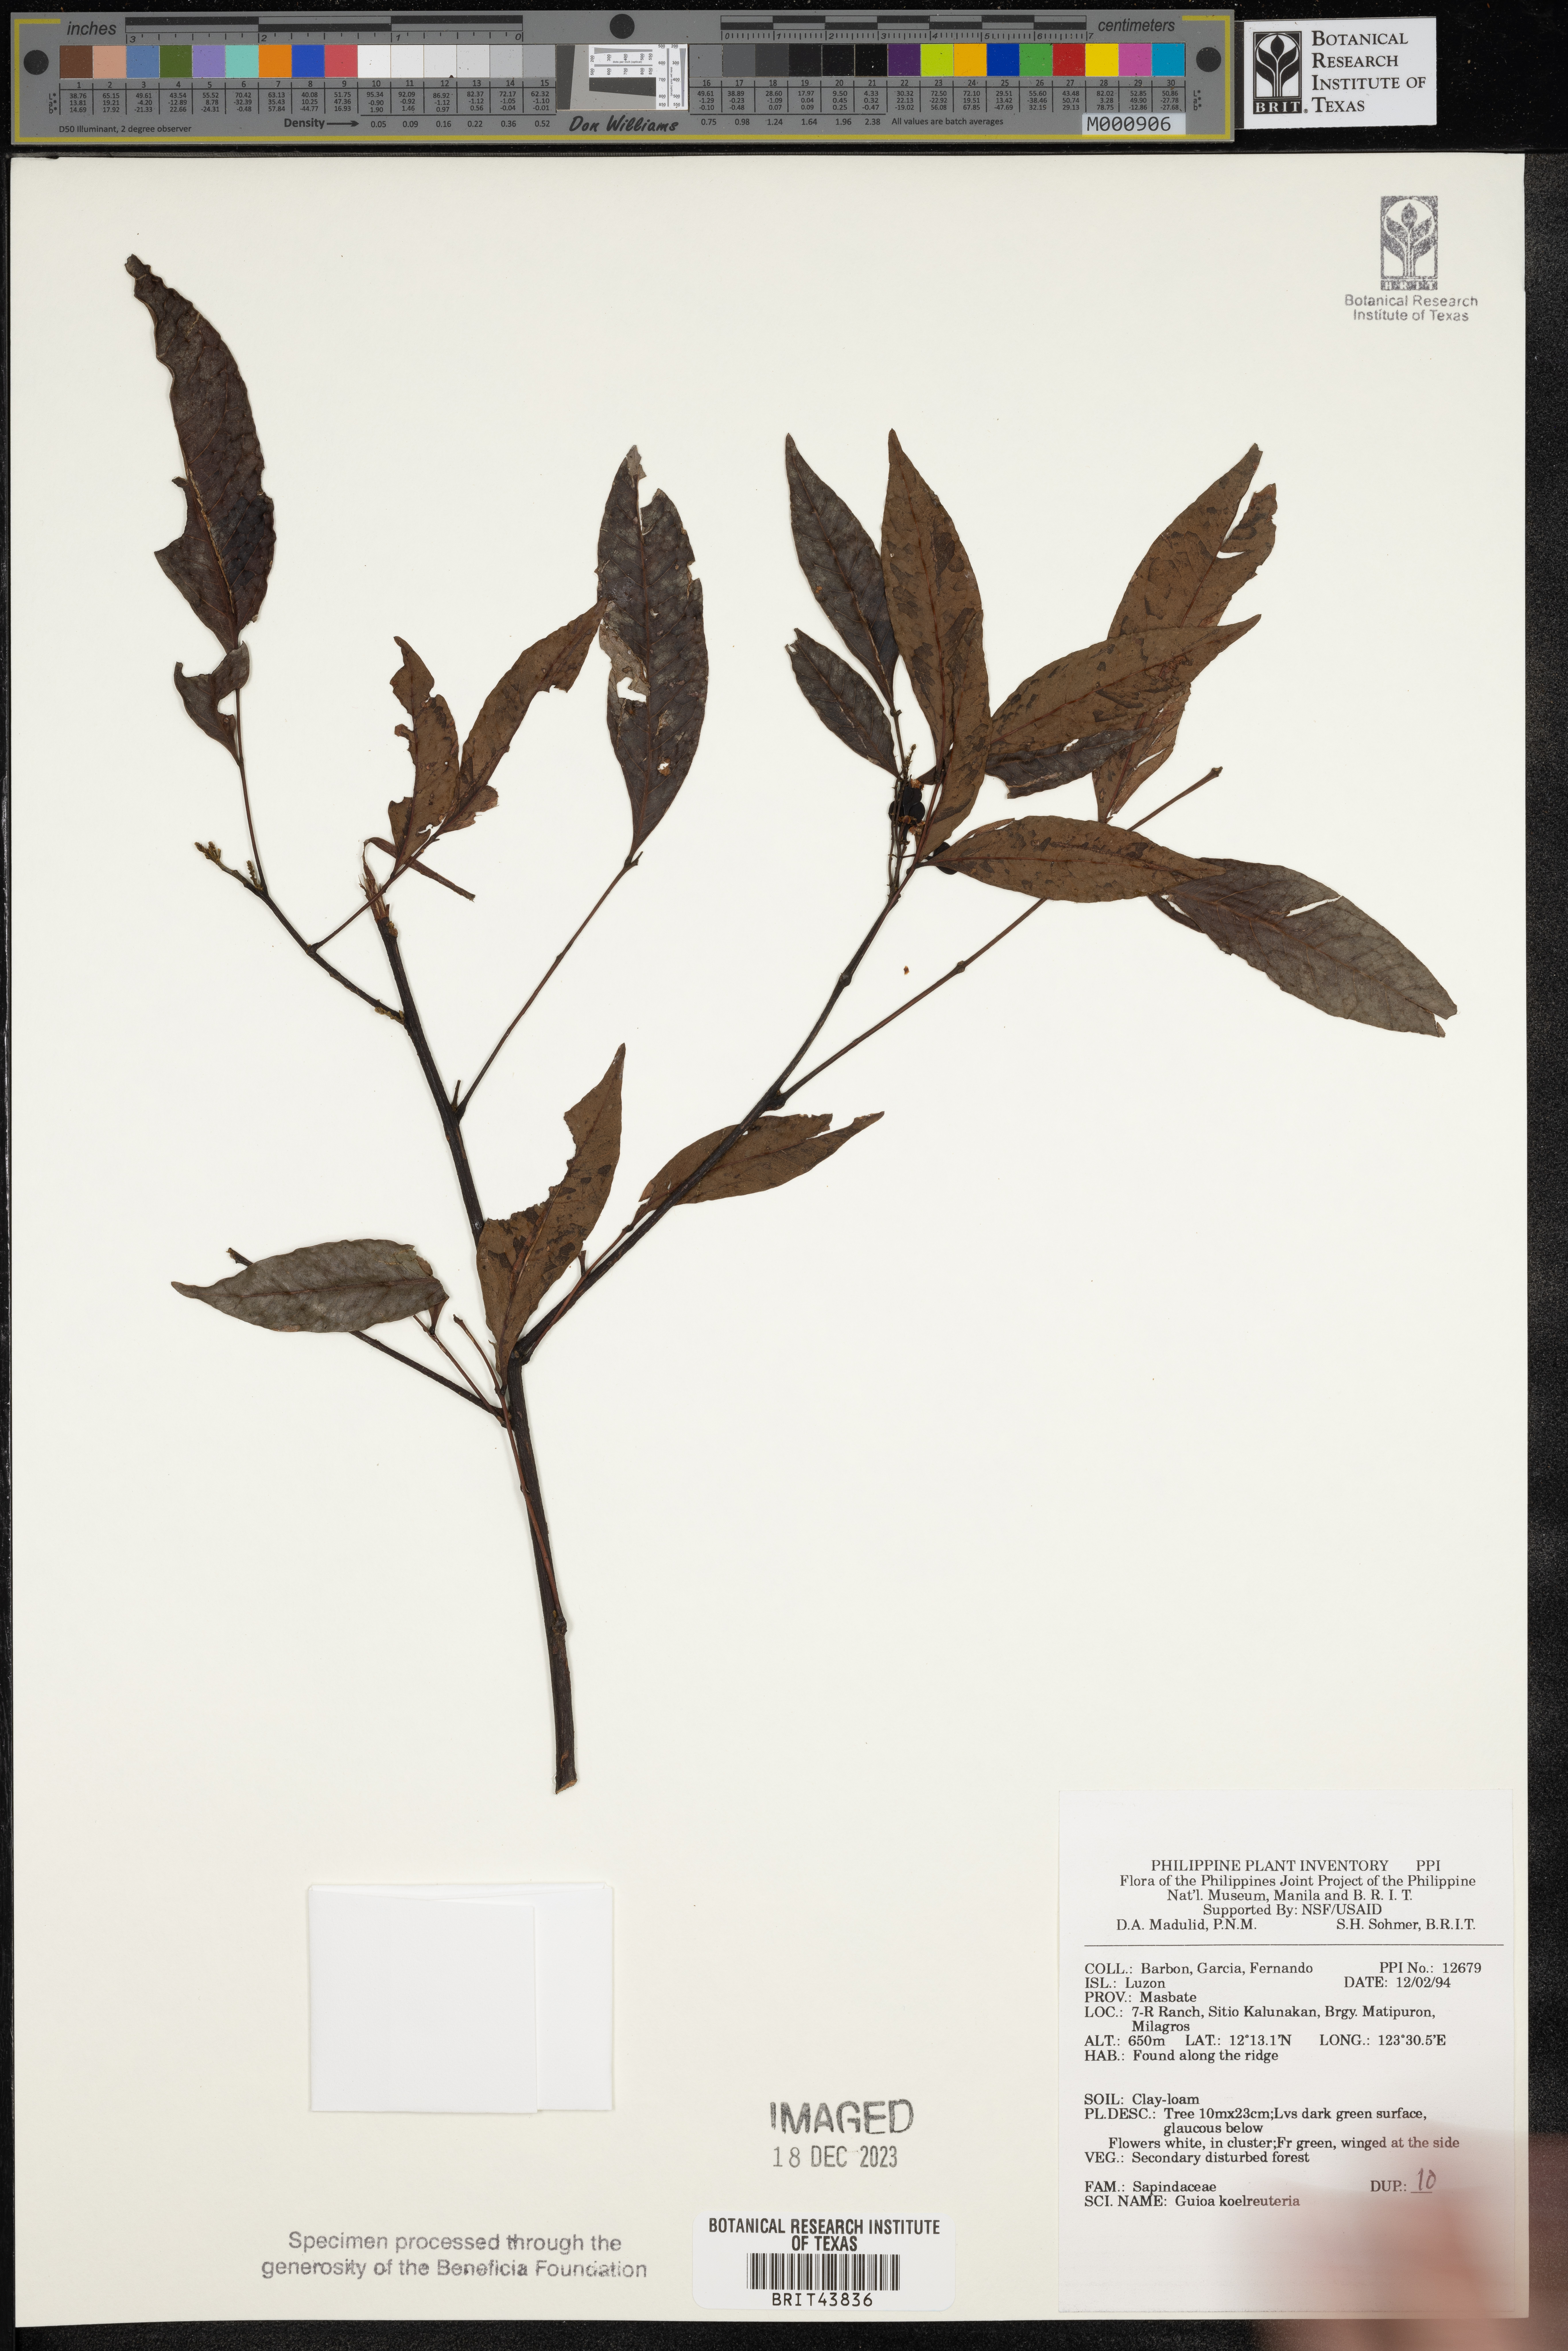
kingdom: Plantae
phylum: Tracheophyta
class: Magnoliopsida
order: Sapindales
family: Sapindaceae
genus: Guioa
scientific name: Guioa koelreuteria
